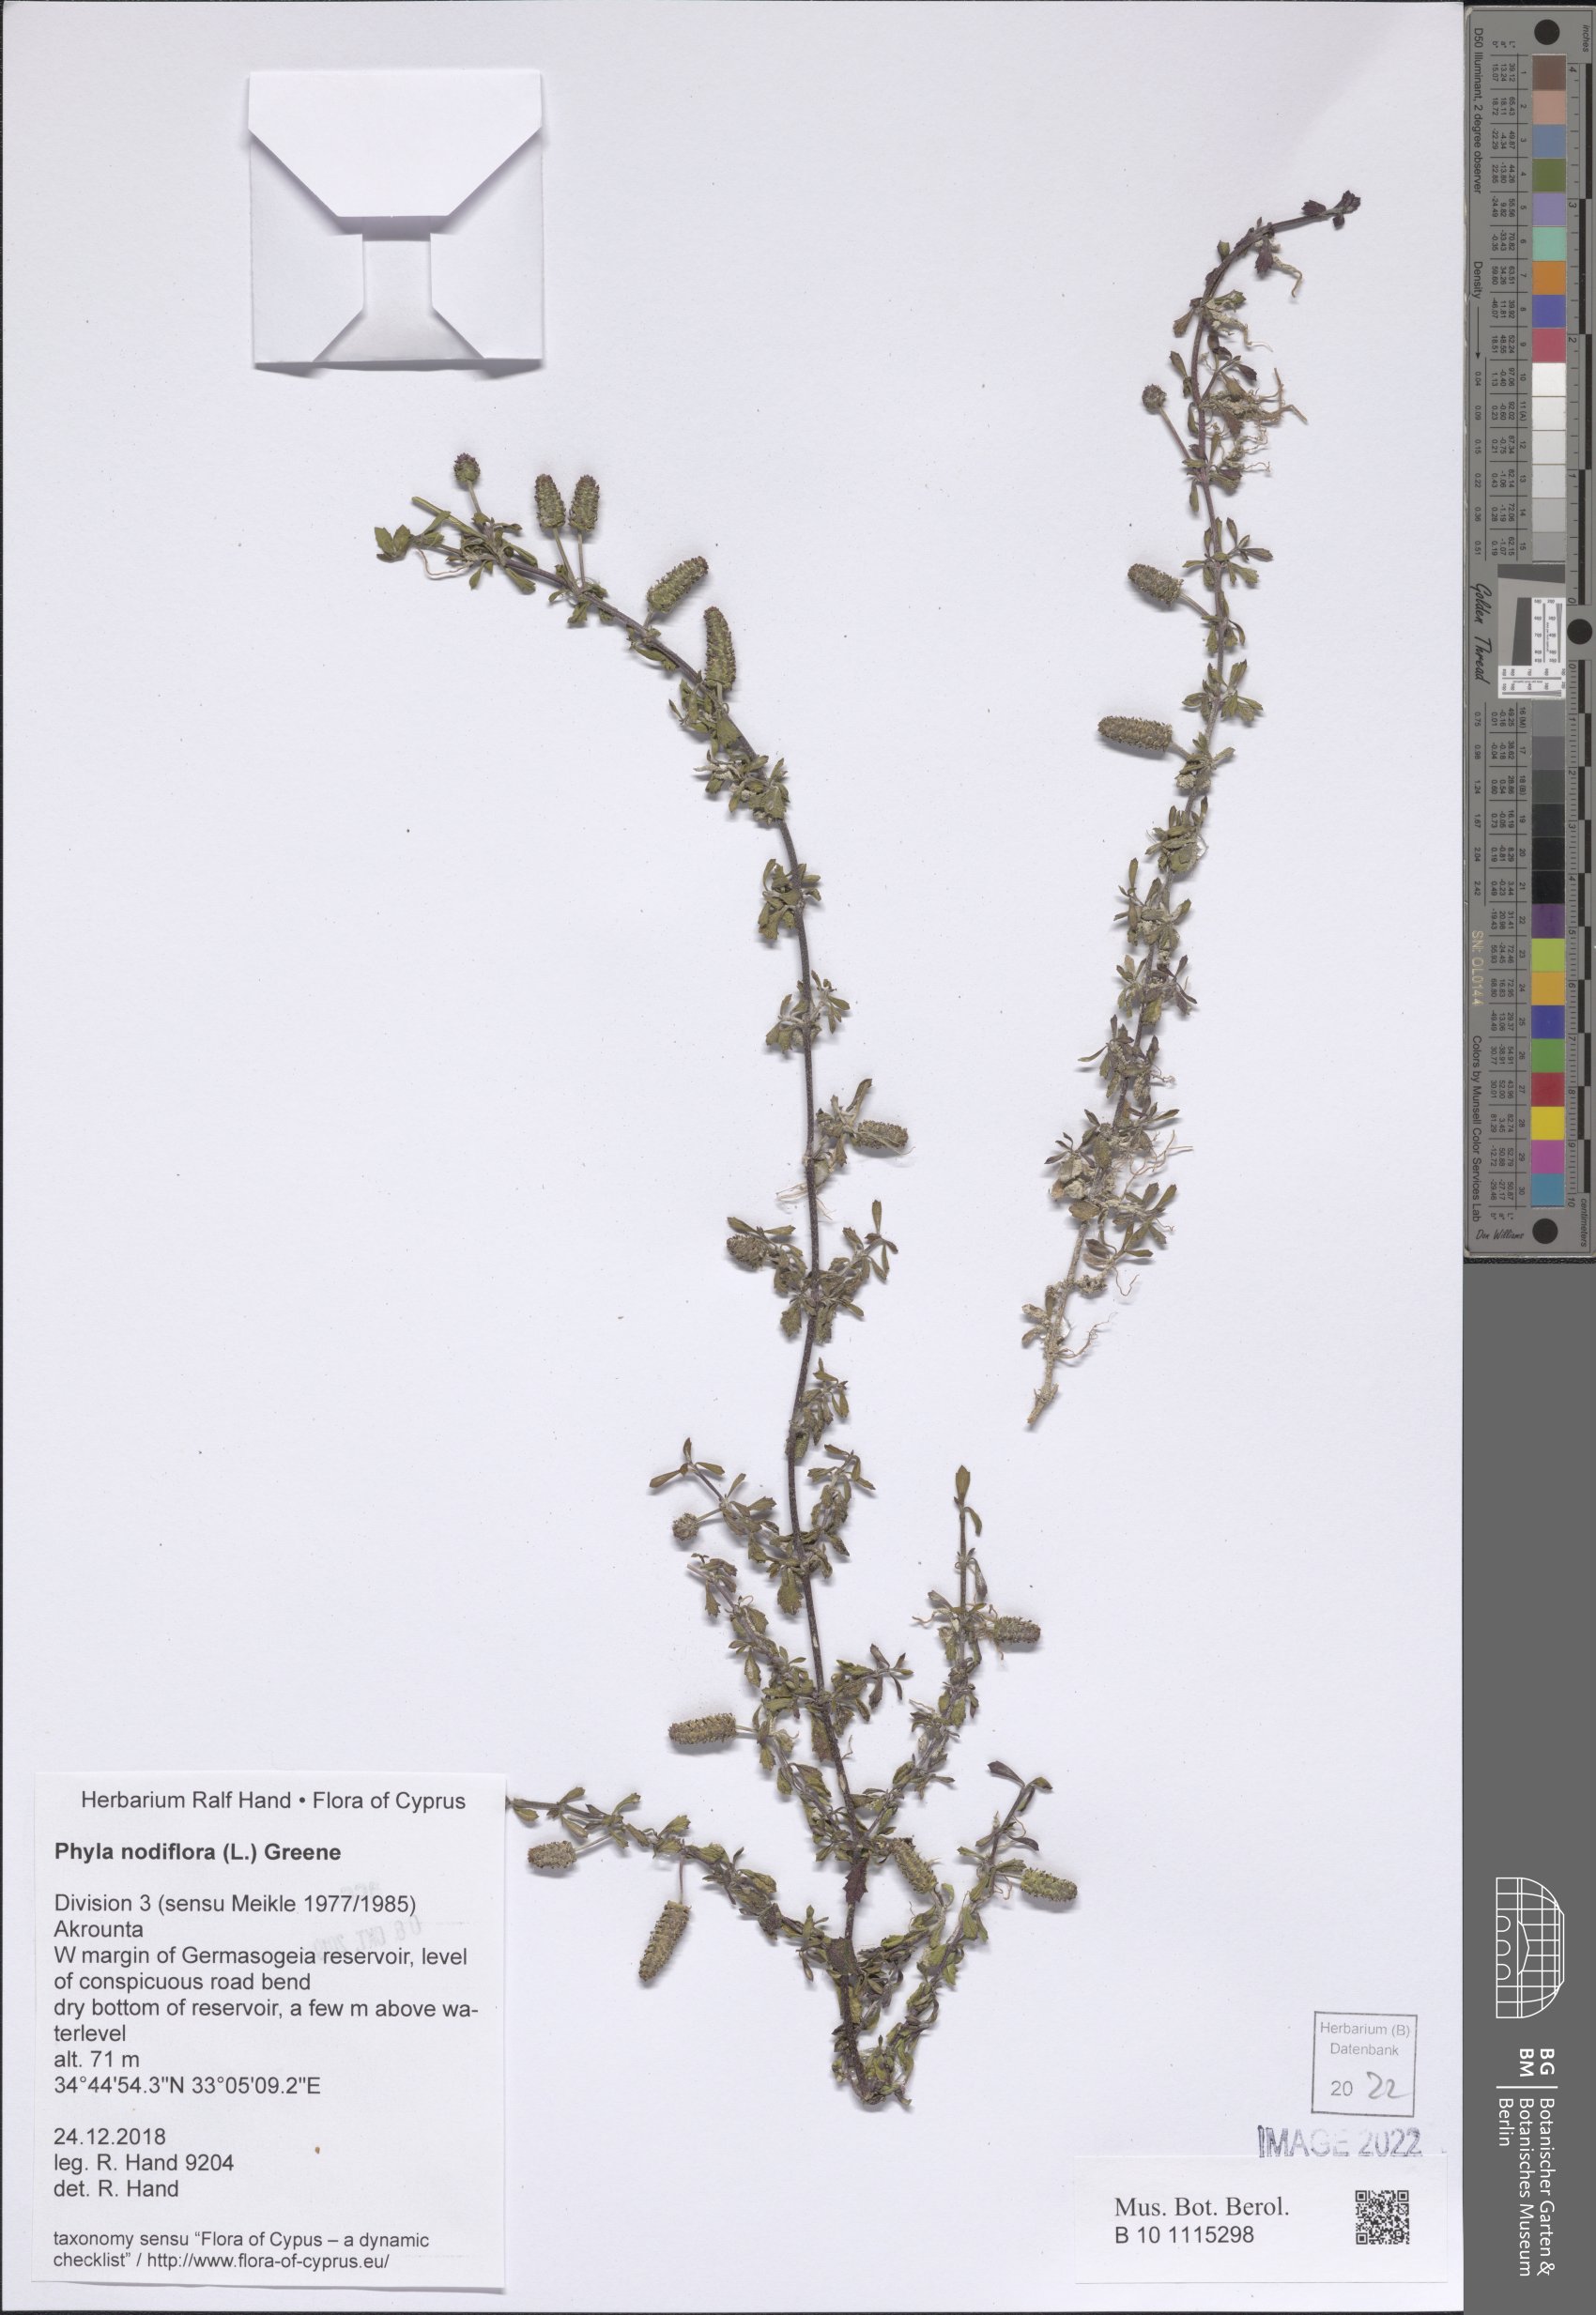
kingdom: Plantae
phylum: Tracheophyta
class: Magnoliopsida
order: Lamiales
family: Verbenaceae
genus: Phyla
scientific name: Phyla nodiflora
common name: Frogfruit
